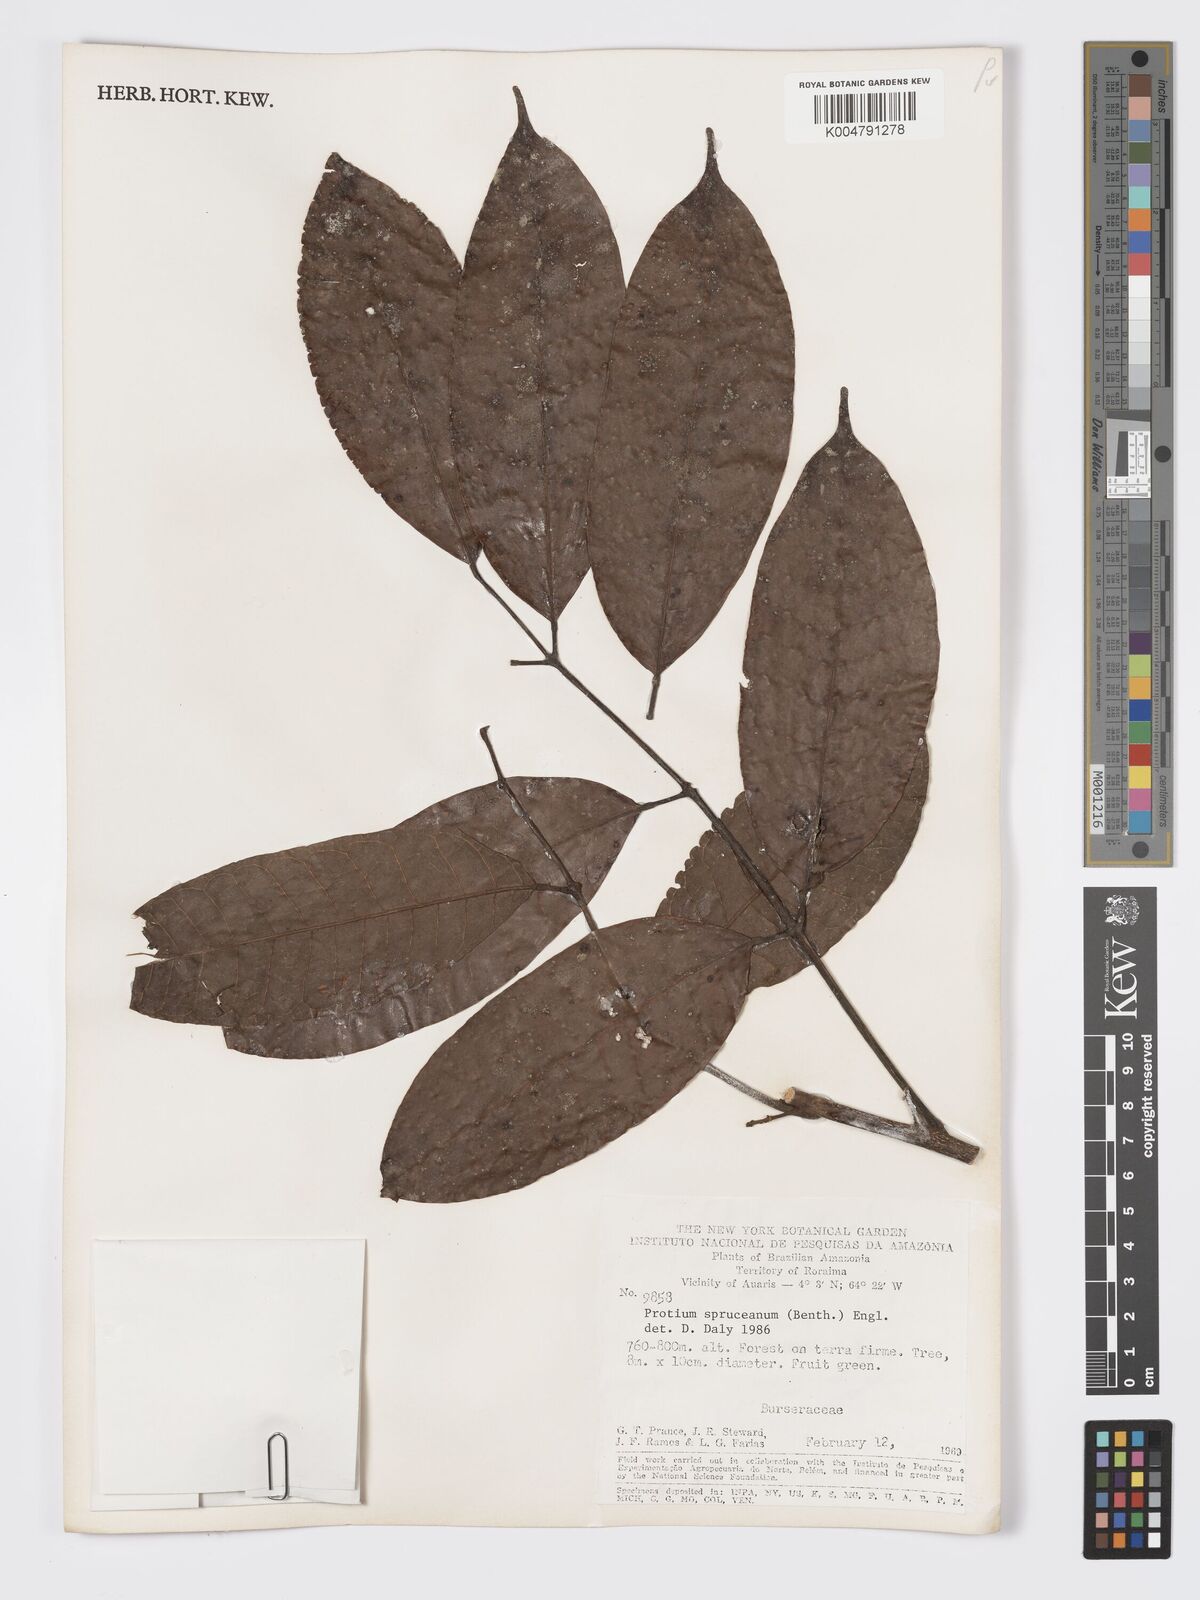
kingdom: Plantae
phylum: Tracheophyta
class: Magnoliopsida
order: Sapindales
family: Burseraceae
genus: Protium
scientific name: Protium spruceanum
